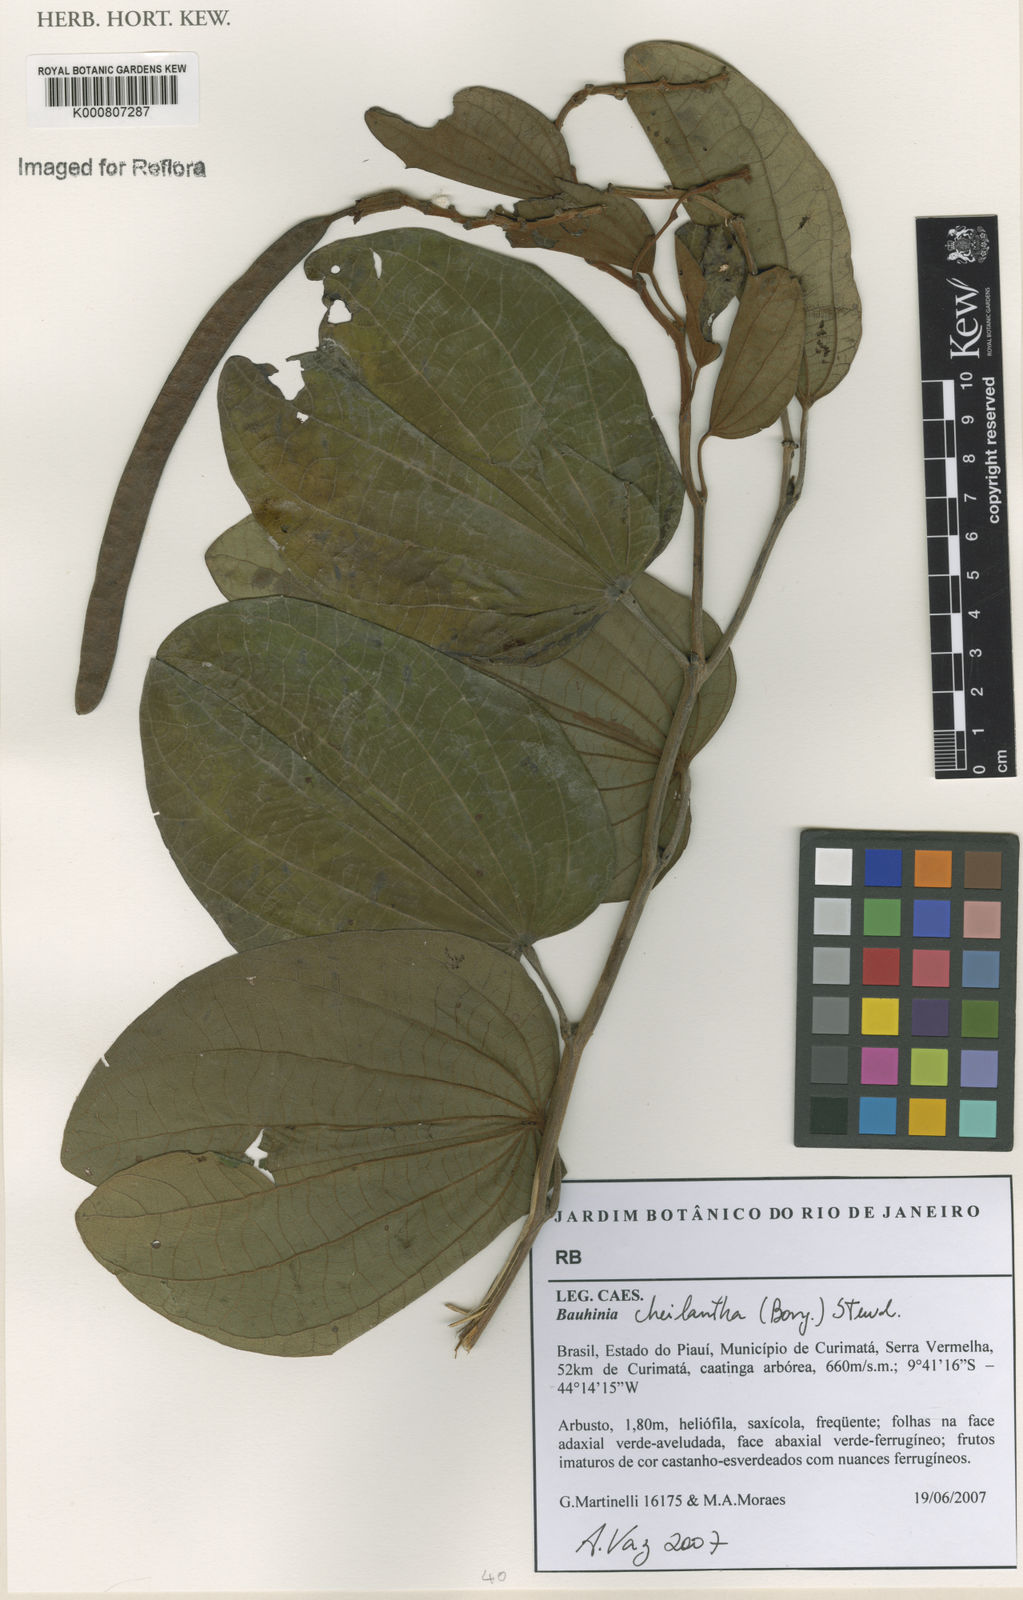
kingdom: Plantae
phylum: Tracheophyta
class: Magnoliopsida
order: Fabales
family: Fabaceae
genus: Bauhinia
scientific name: Bauhinia cheilantha
